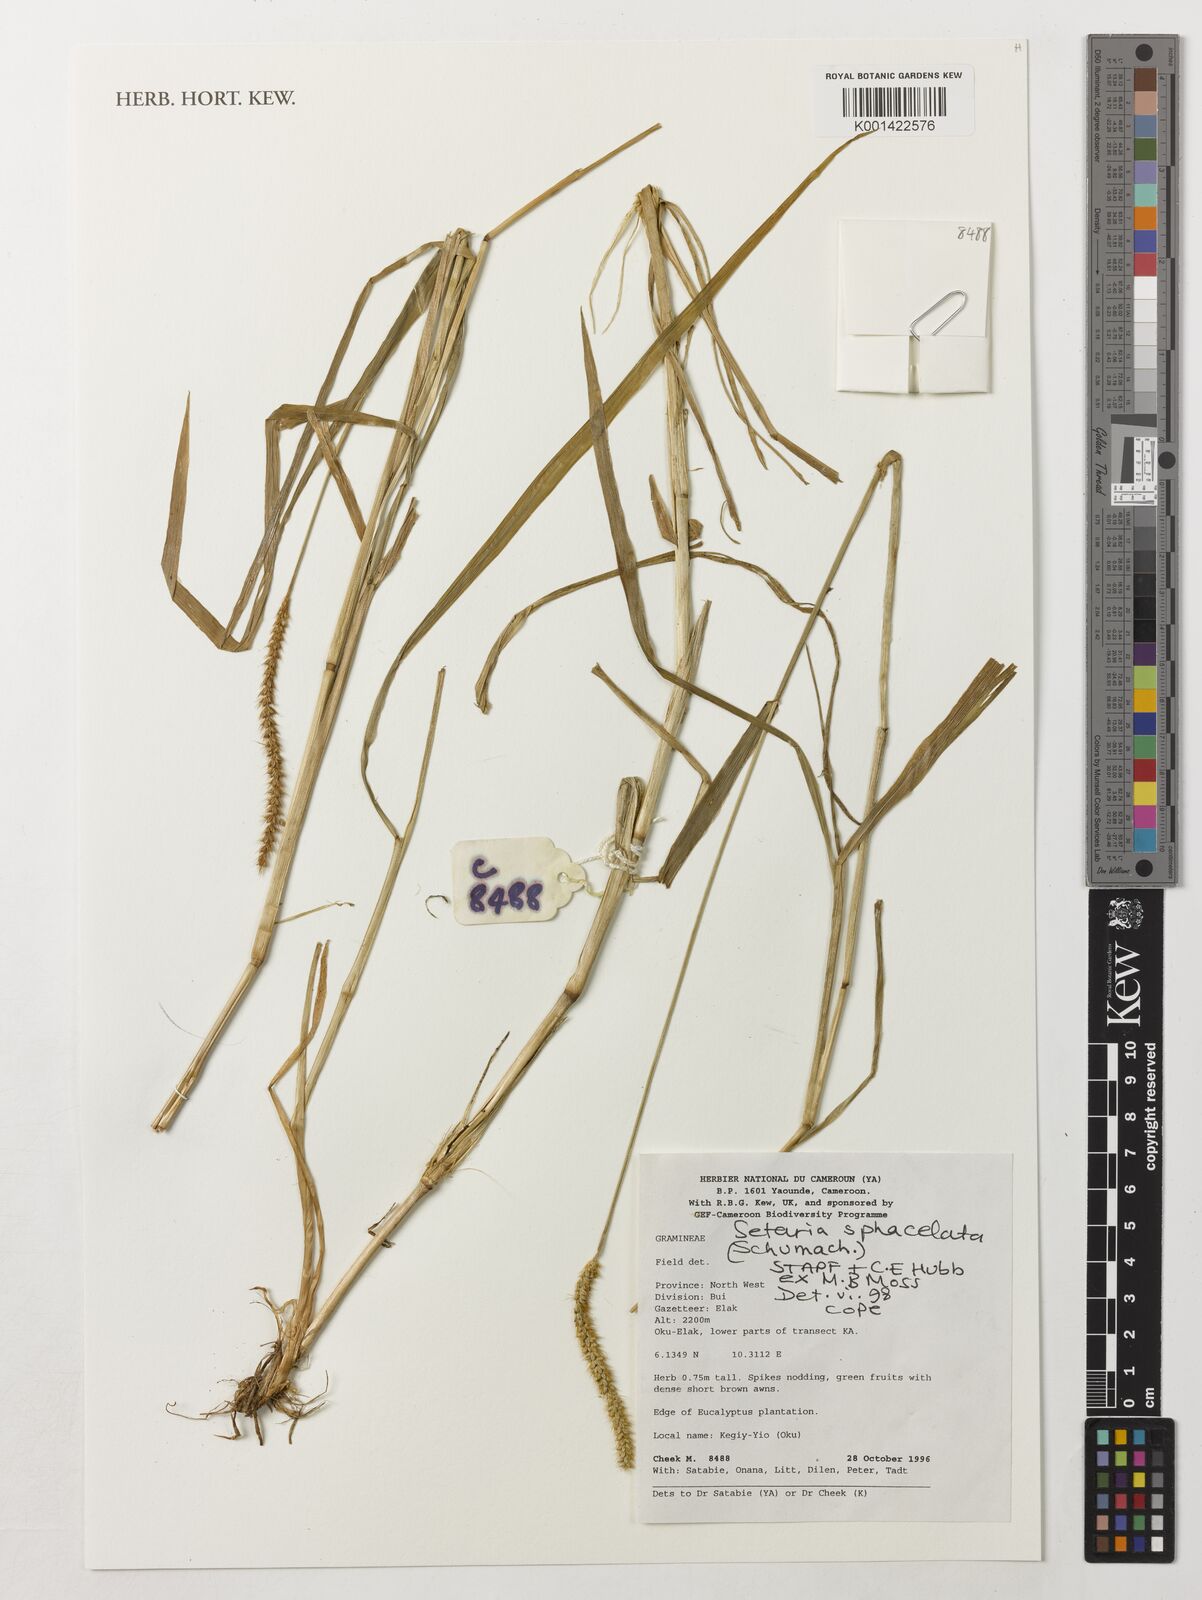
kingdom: Plantae
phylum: Tracheophyta
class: Liliopsida
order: Poales
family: Poaceae
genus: Setaria
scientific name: Setaria sphacelata
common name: African bristlegrass
